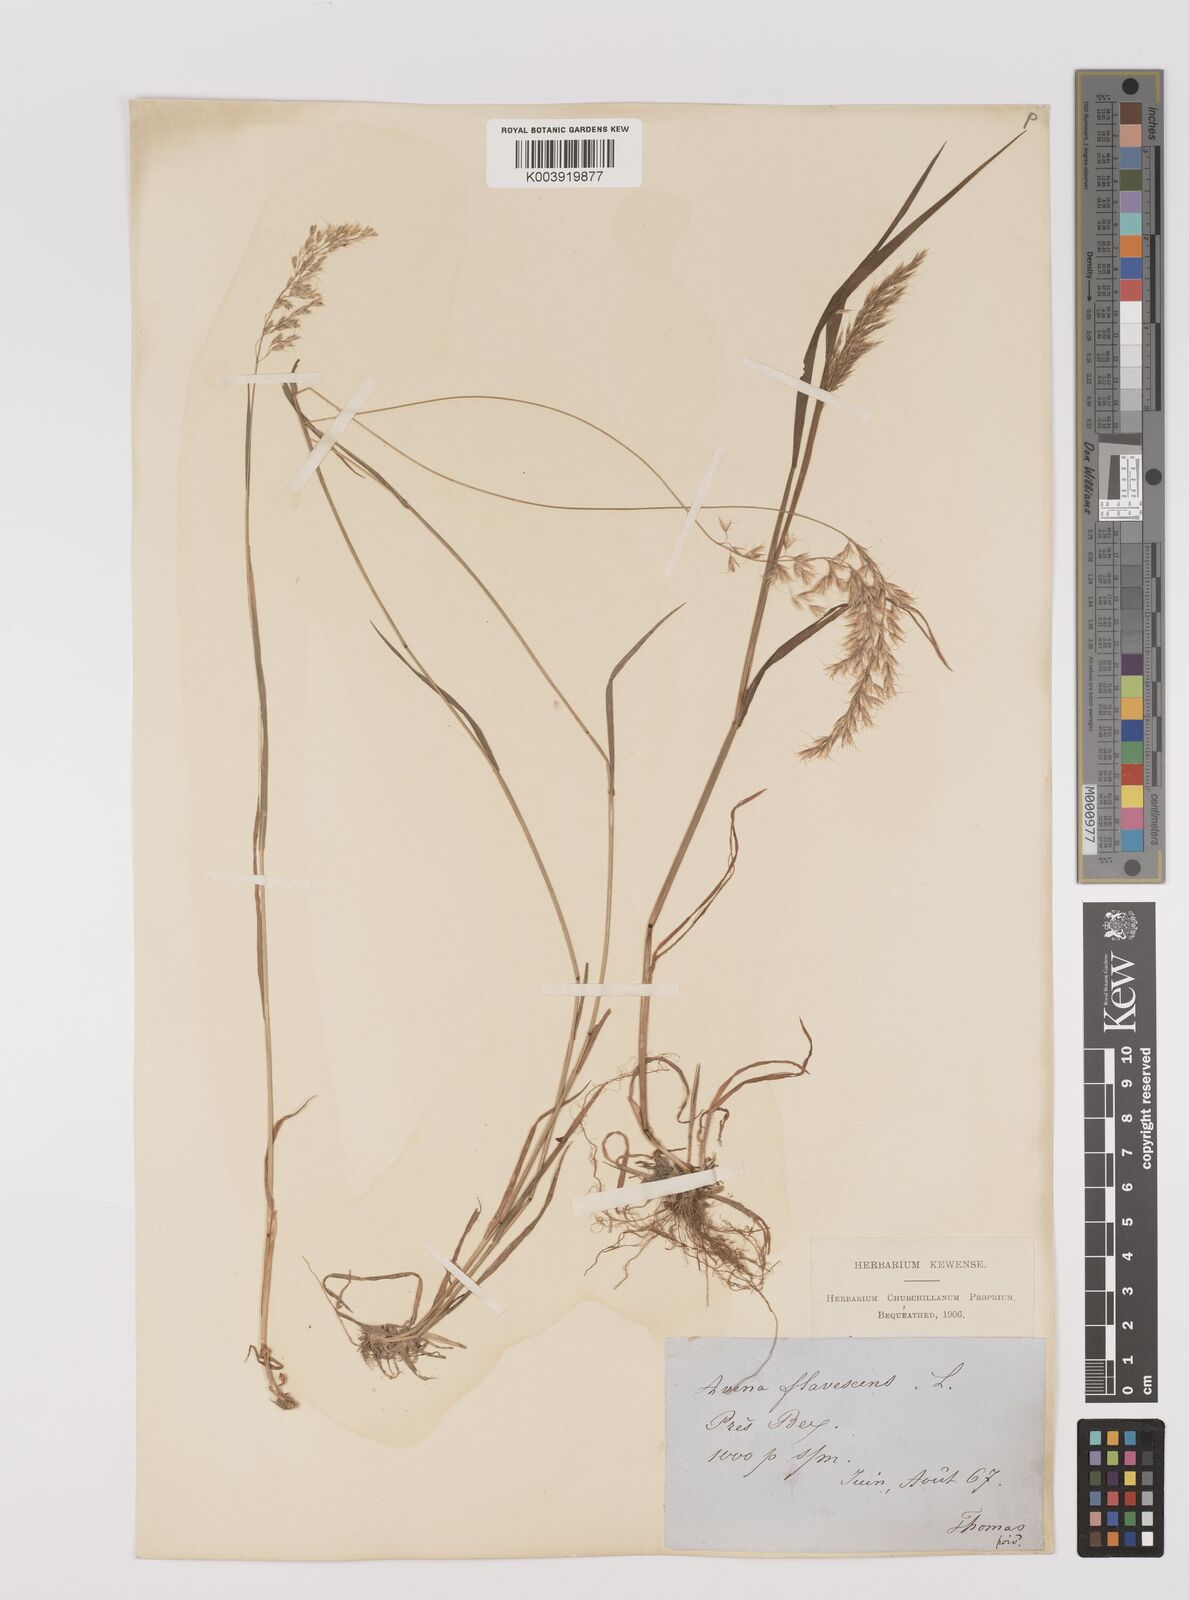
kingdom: Plantae
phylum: Tracheophyta
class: Liliopsida
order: Poales
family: Poaceae
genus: Trisetum
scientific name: Trisetum flavescens
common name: Yellow oat-grass
